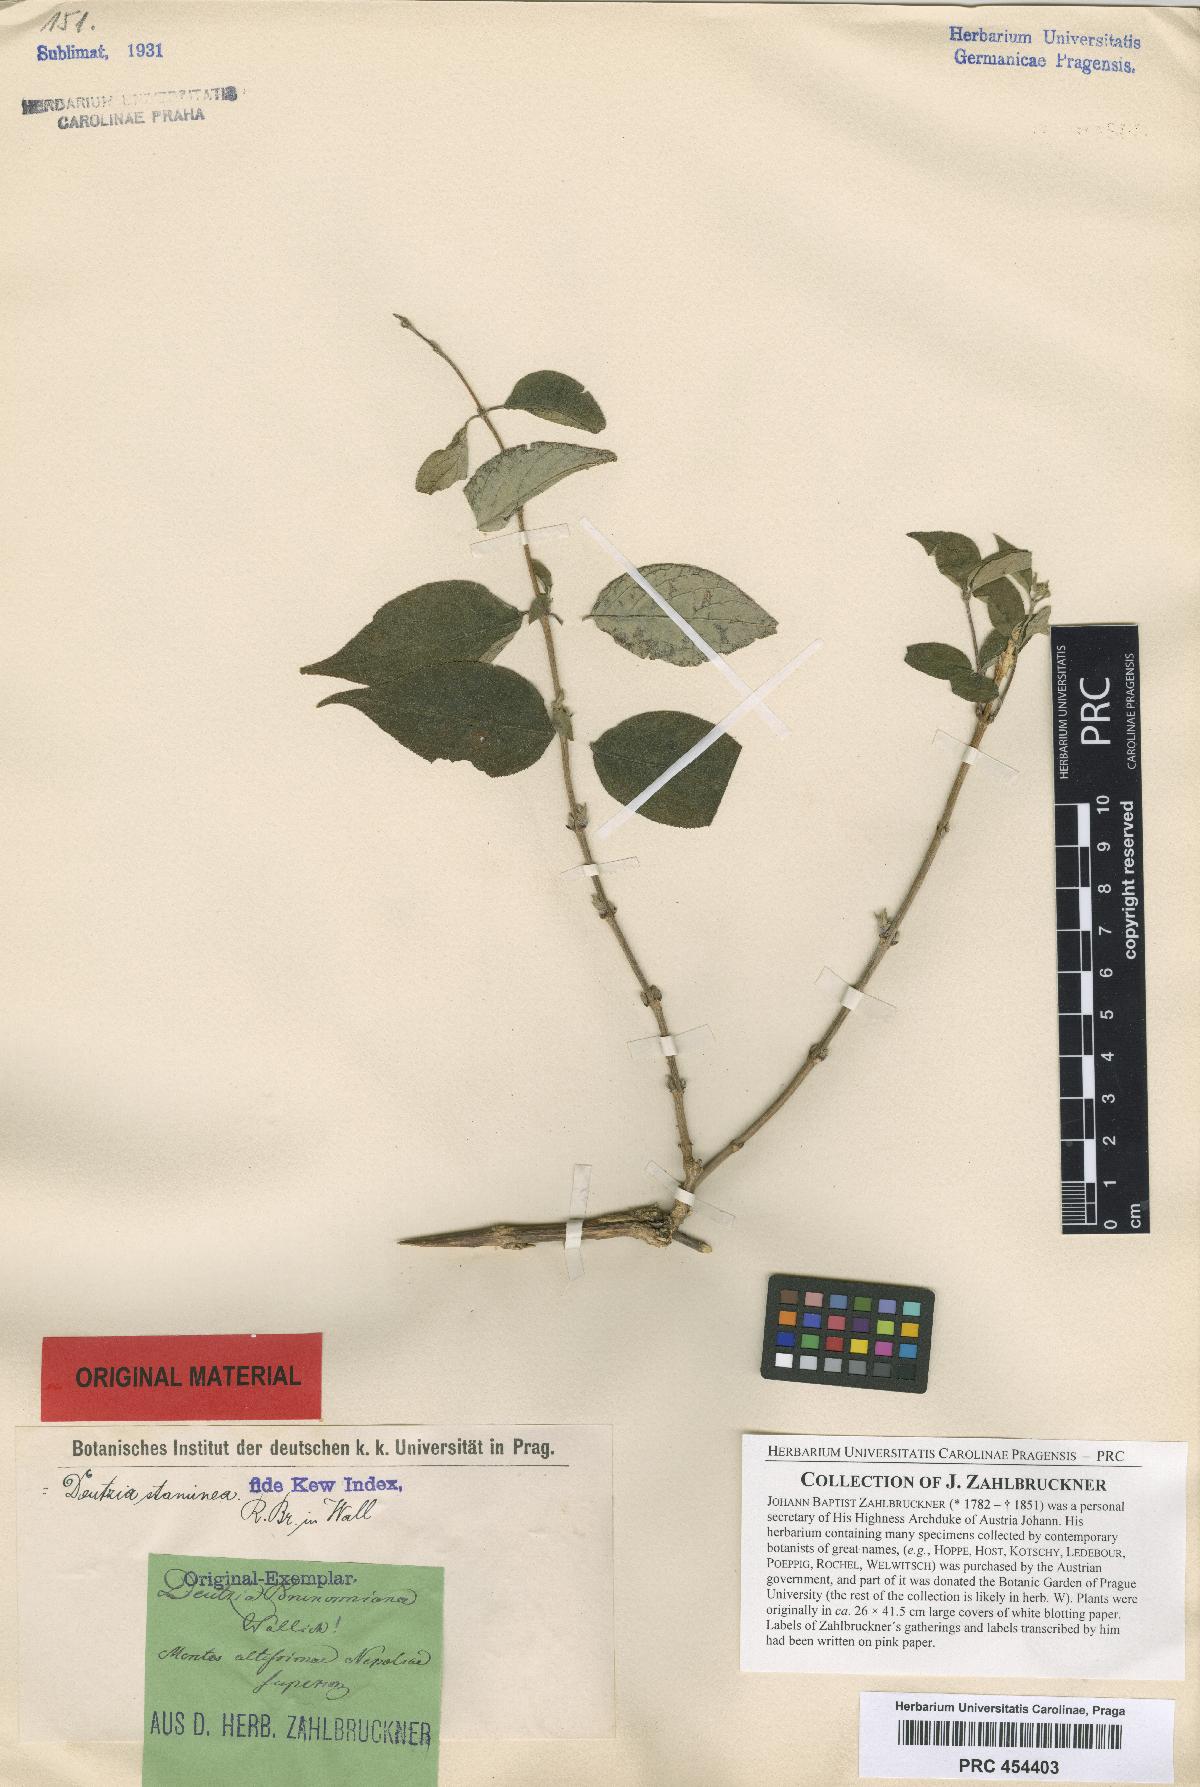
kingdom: Plantae
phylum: Tracheophyta
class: Magnoliopsida
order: Cornales
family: Hydrangeaceae
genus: Deutzia
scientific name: Deutzia staminea
